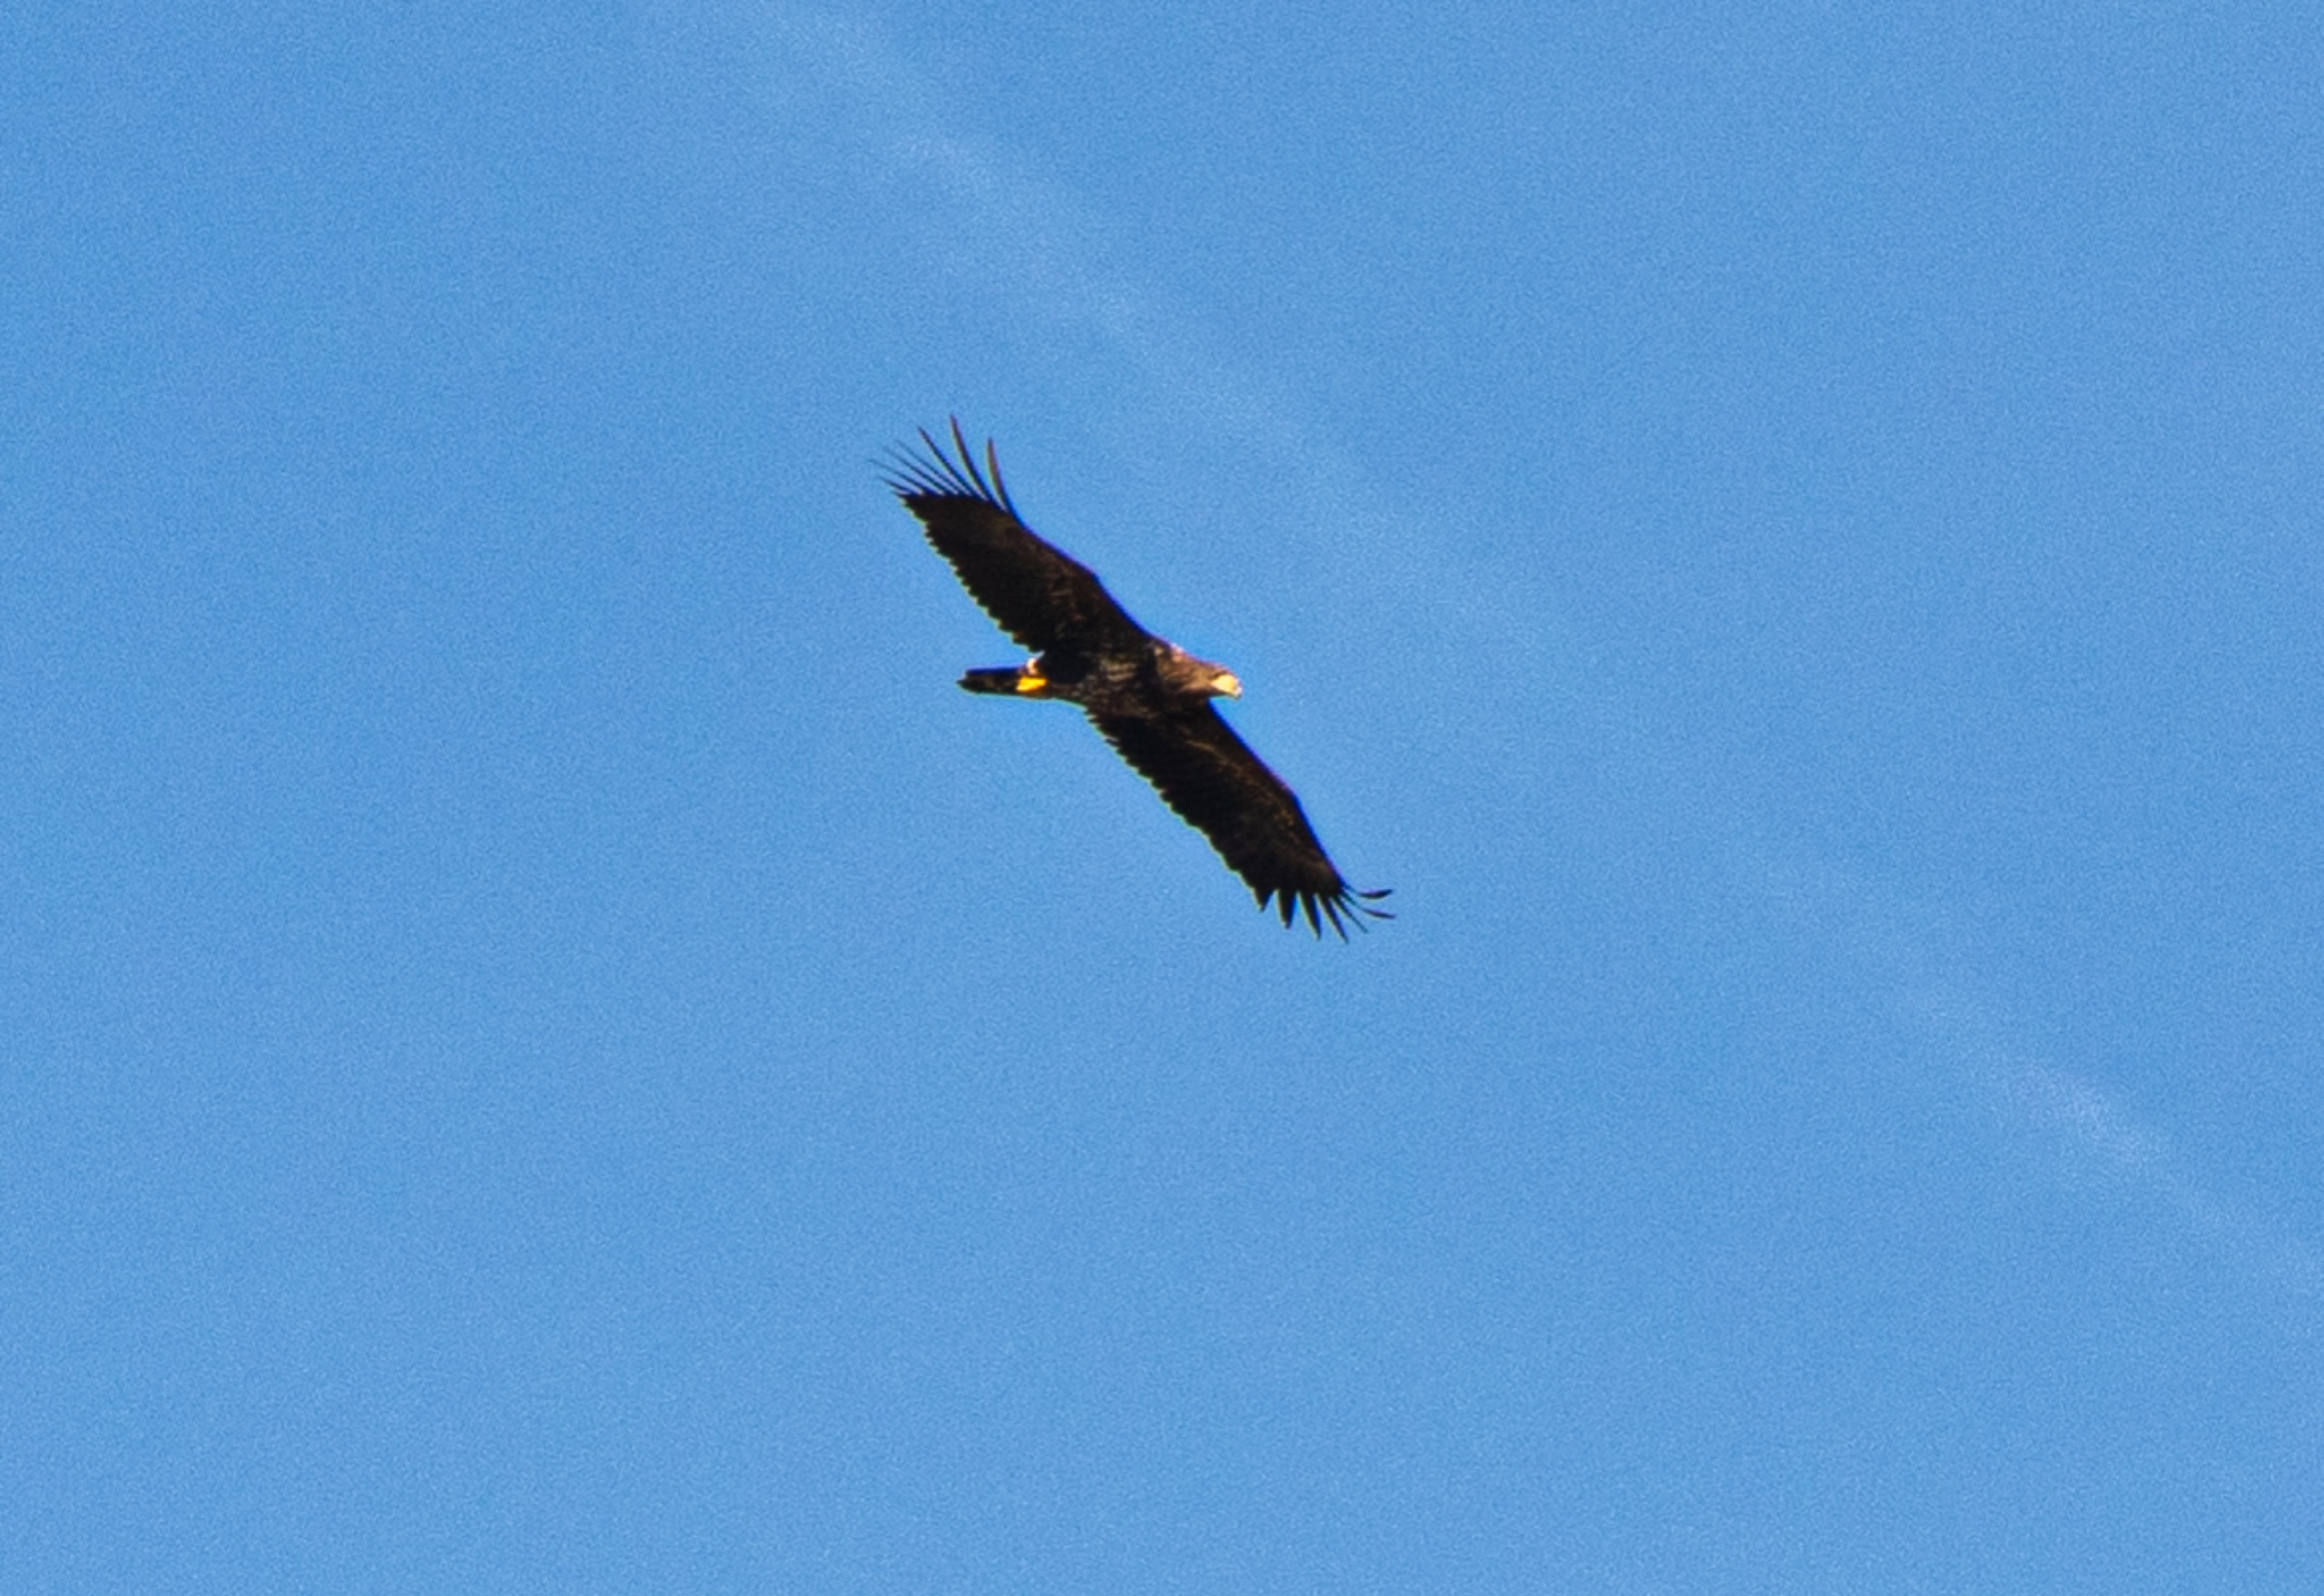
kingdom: Animalia
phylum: Chordata
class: Aves
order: Accipitriformes
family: Accipitridae
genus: Haliaeetus
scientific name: Haliaeetus albicilla
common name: Havørn
